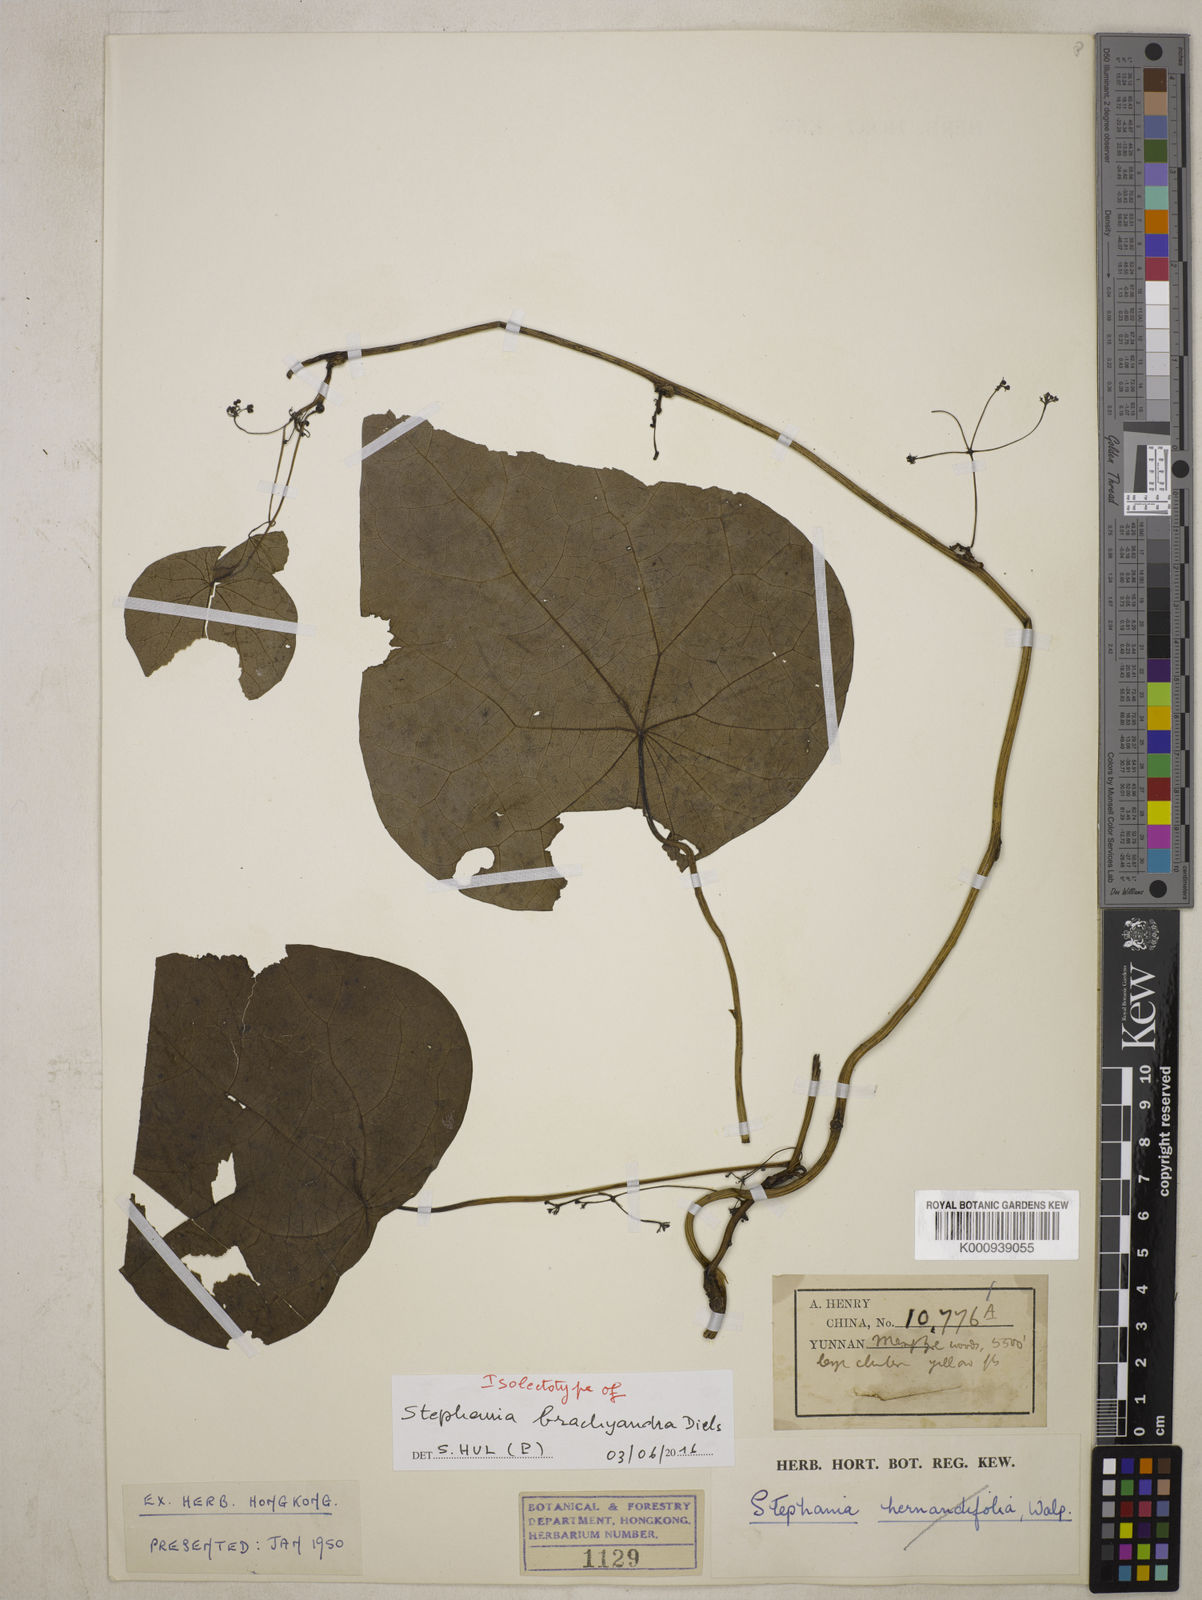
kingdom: Plantae
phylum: Tracheophyta
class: Magnoliopsida
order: Ranunculales
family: Menispermaceae
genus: Stephania
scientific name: Stephania brachyandra
